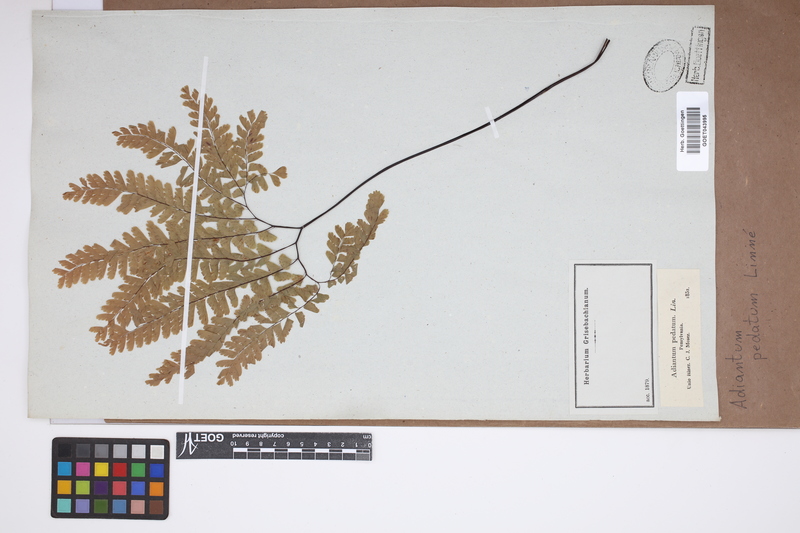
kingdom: Plantae
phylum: Tracheophyta
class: Polypodiopsida
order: Polypodiales
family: Pteridaceae
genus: Adiantum
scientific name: Adiantum pedatum
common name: Five-finger fern
